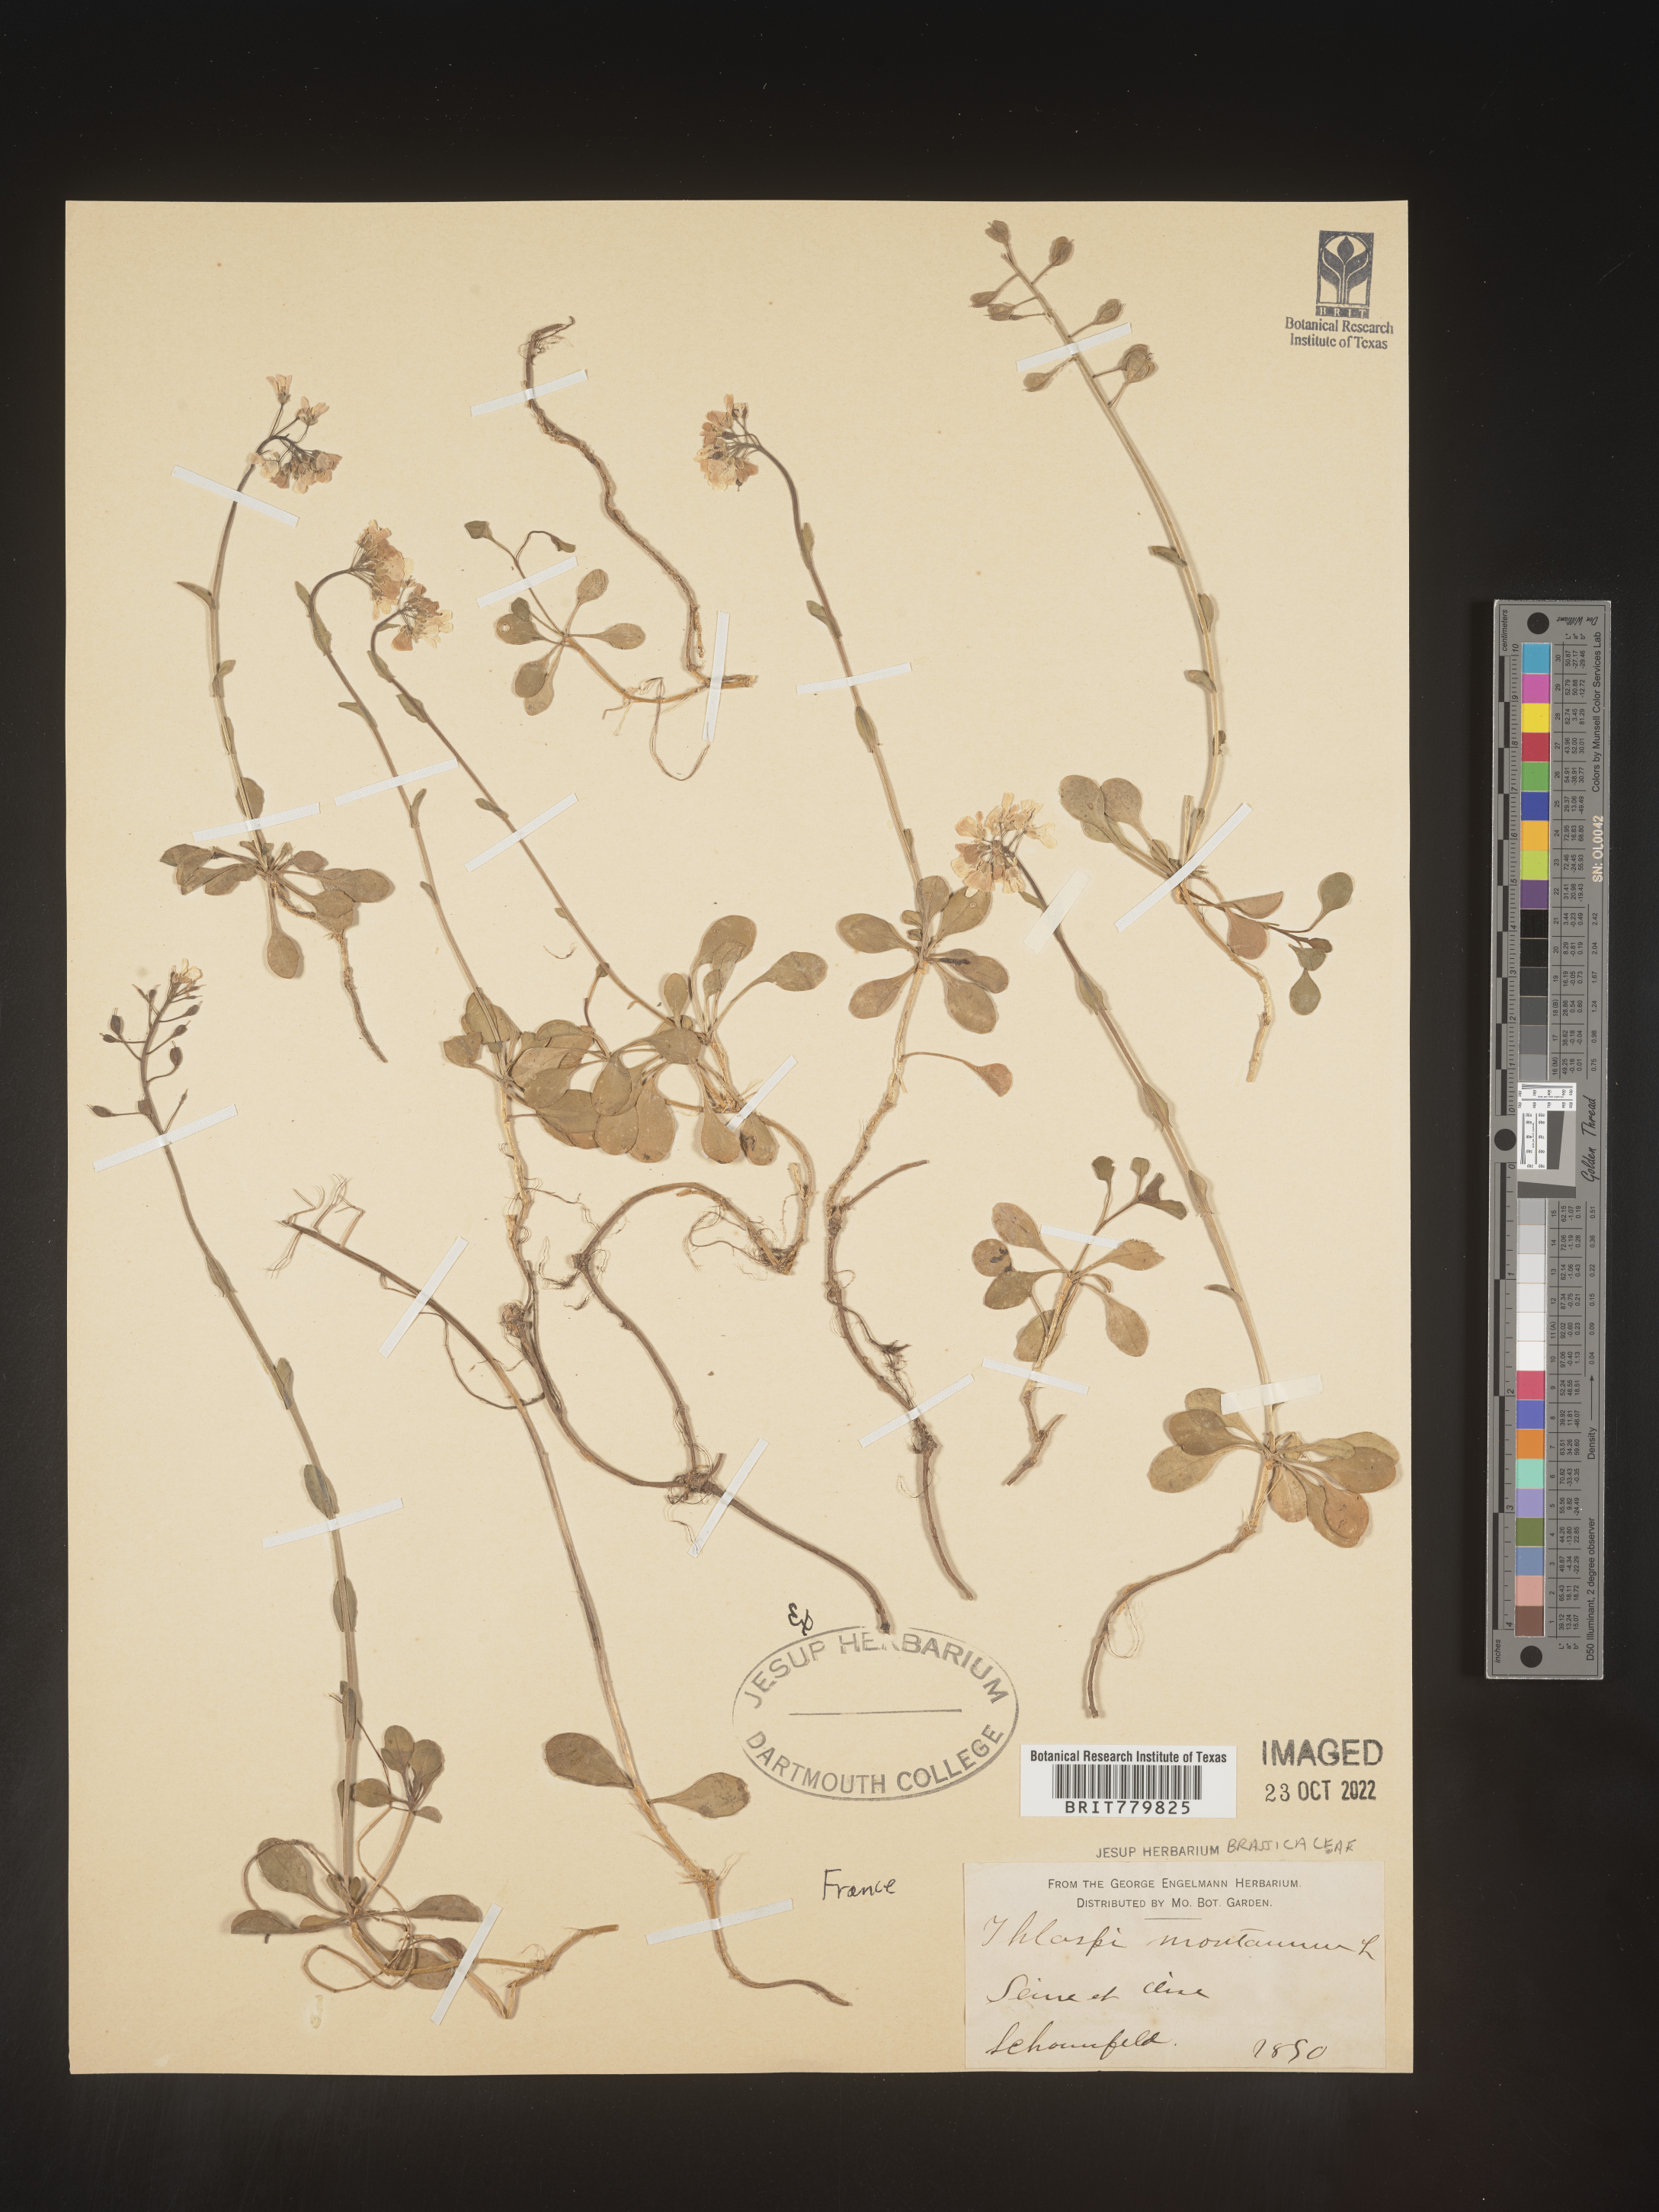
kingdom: Plantae
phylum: Tracheophyta
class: Magnoliopsida
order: Brassicales
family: Brassicaceae
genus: Thlaspi
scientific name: Thlaspi
